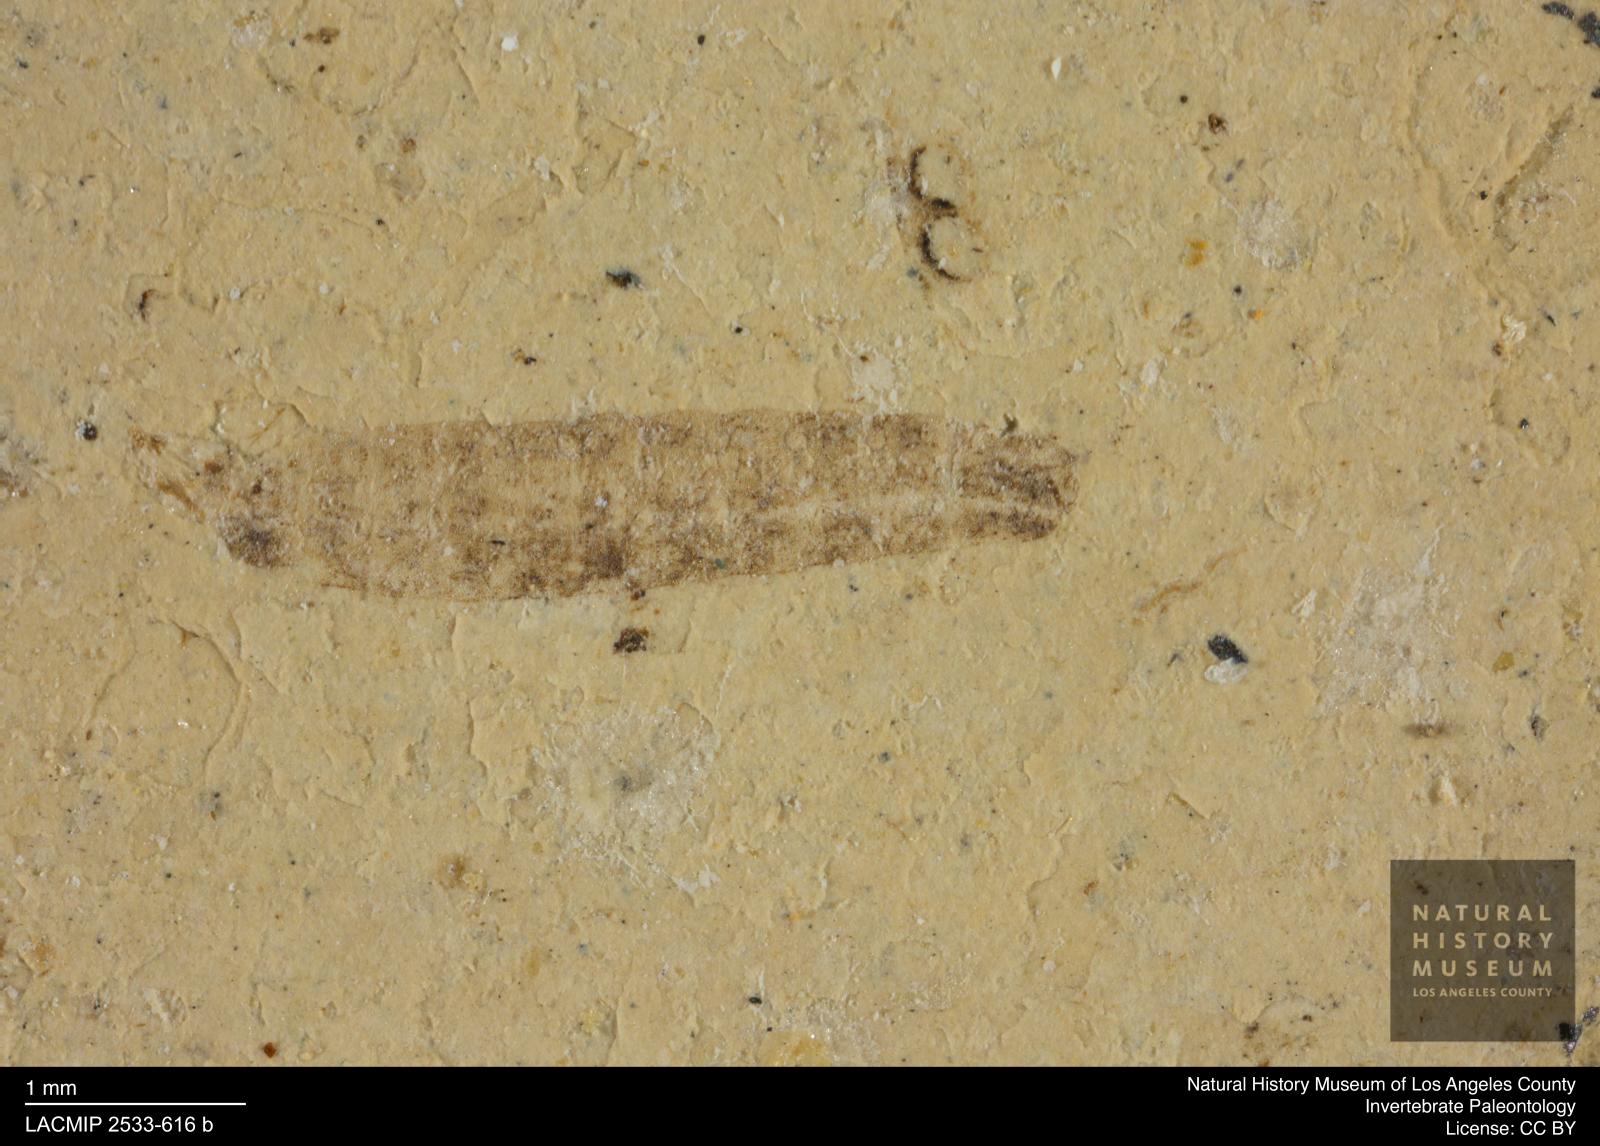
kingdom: Animalia
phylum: Arthropoda
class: Insecta
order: Diptera
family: Stratiomyidae
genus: Odontomyia
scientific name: Odontomyia
